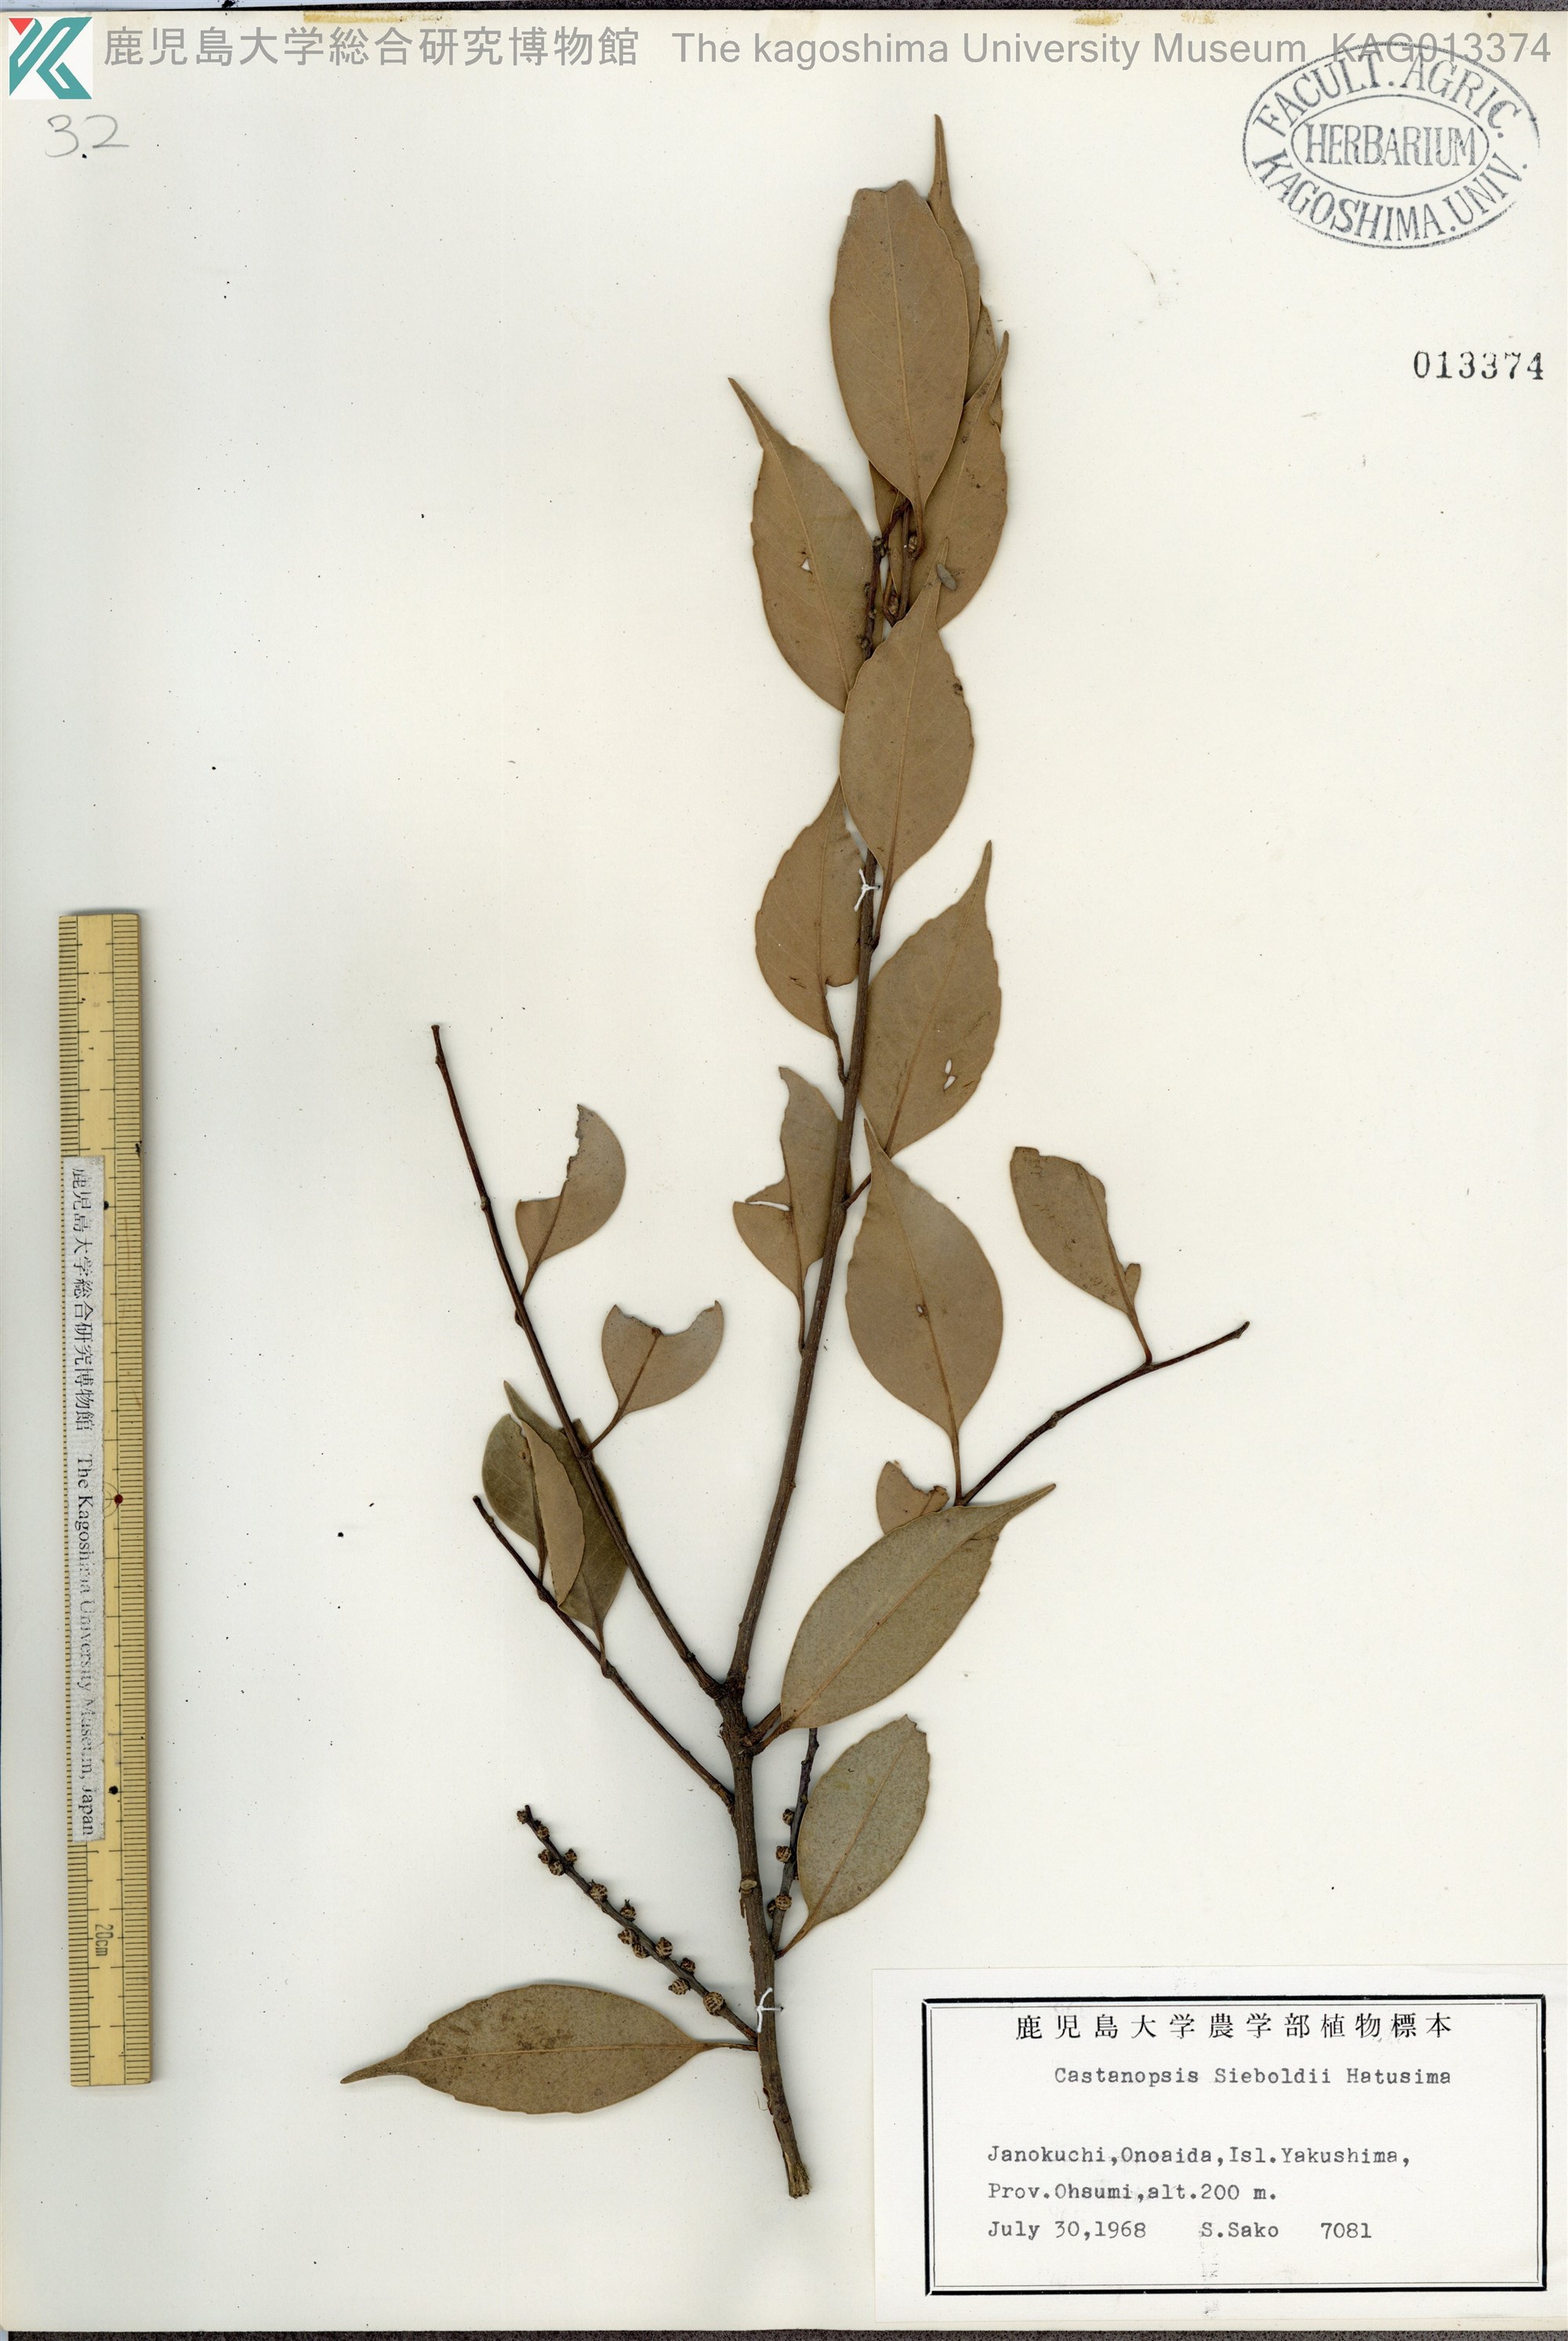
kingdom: Plantae
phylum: Tracheophyta
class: Magnoliopsida
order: Fagales
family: Fagaceae
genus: Castanopsis
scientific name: Castanopsis sieboldii
